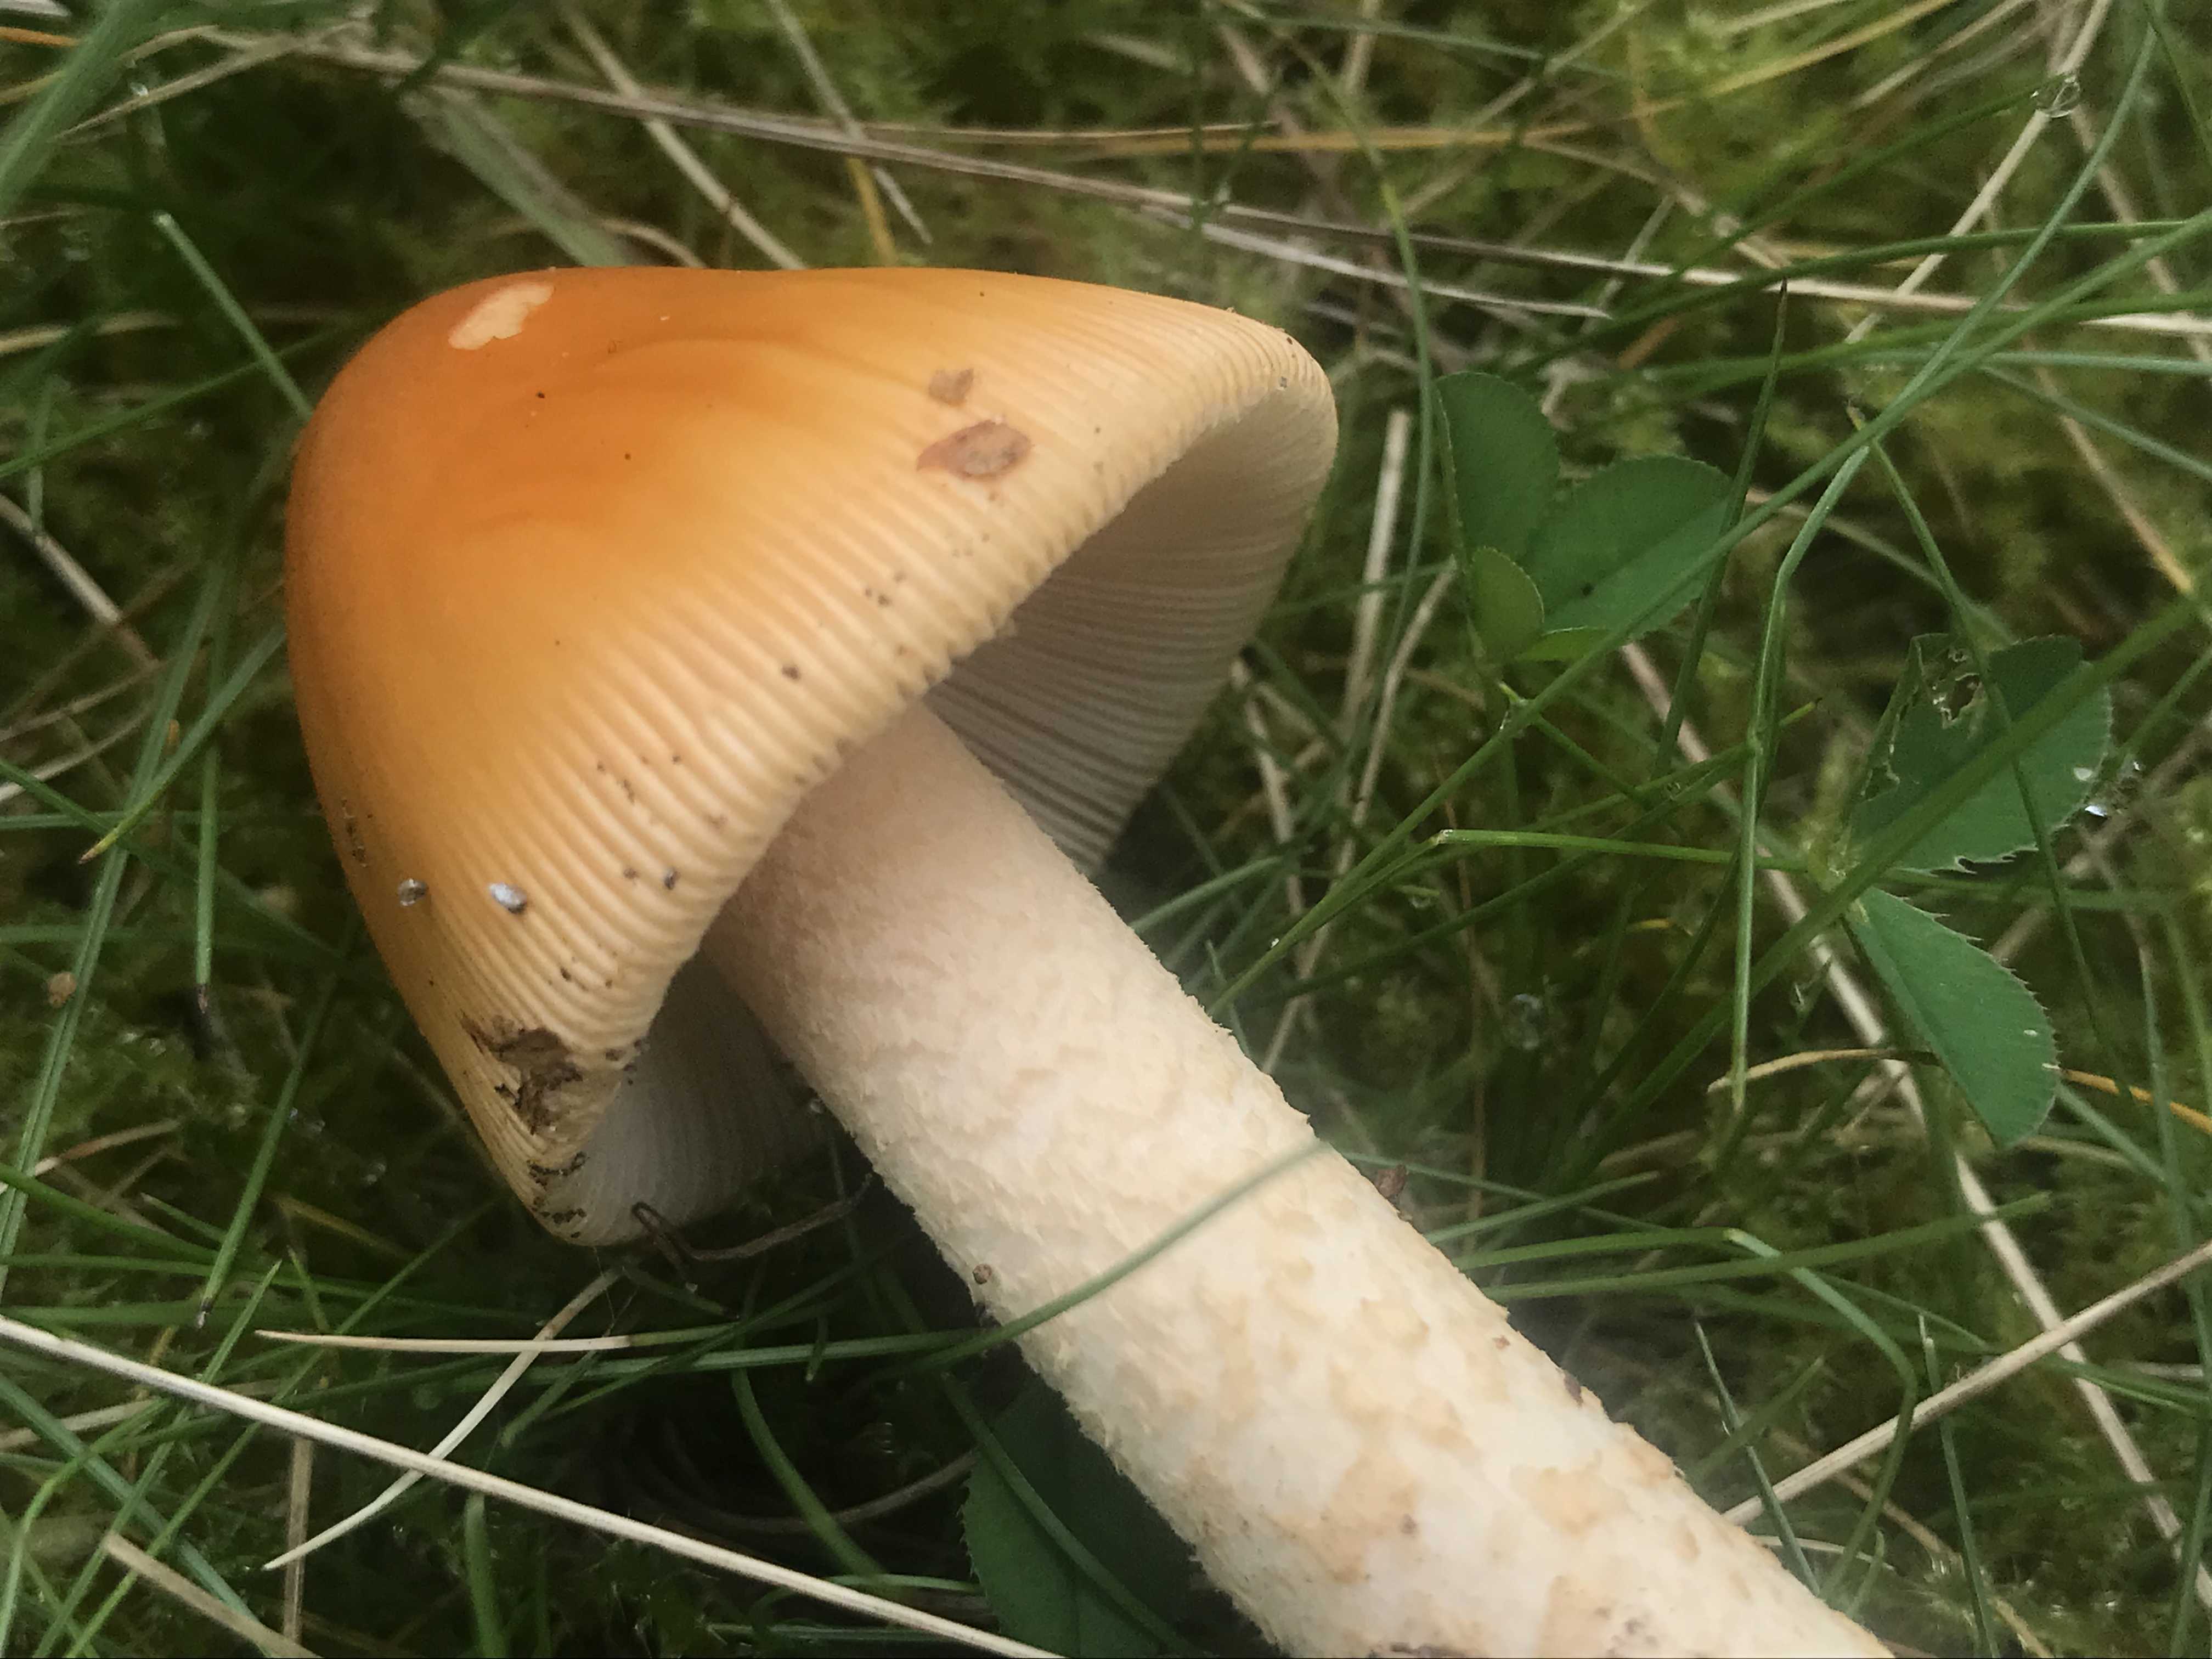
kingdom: Fungi
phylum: Basidiomycota
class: Agaricomycetes
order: Agaricales
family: Amanitaceae
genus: Amanita
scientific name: Amanita crocea
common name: gylden kam-fluesvamp
